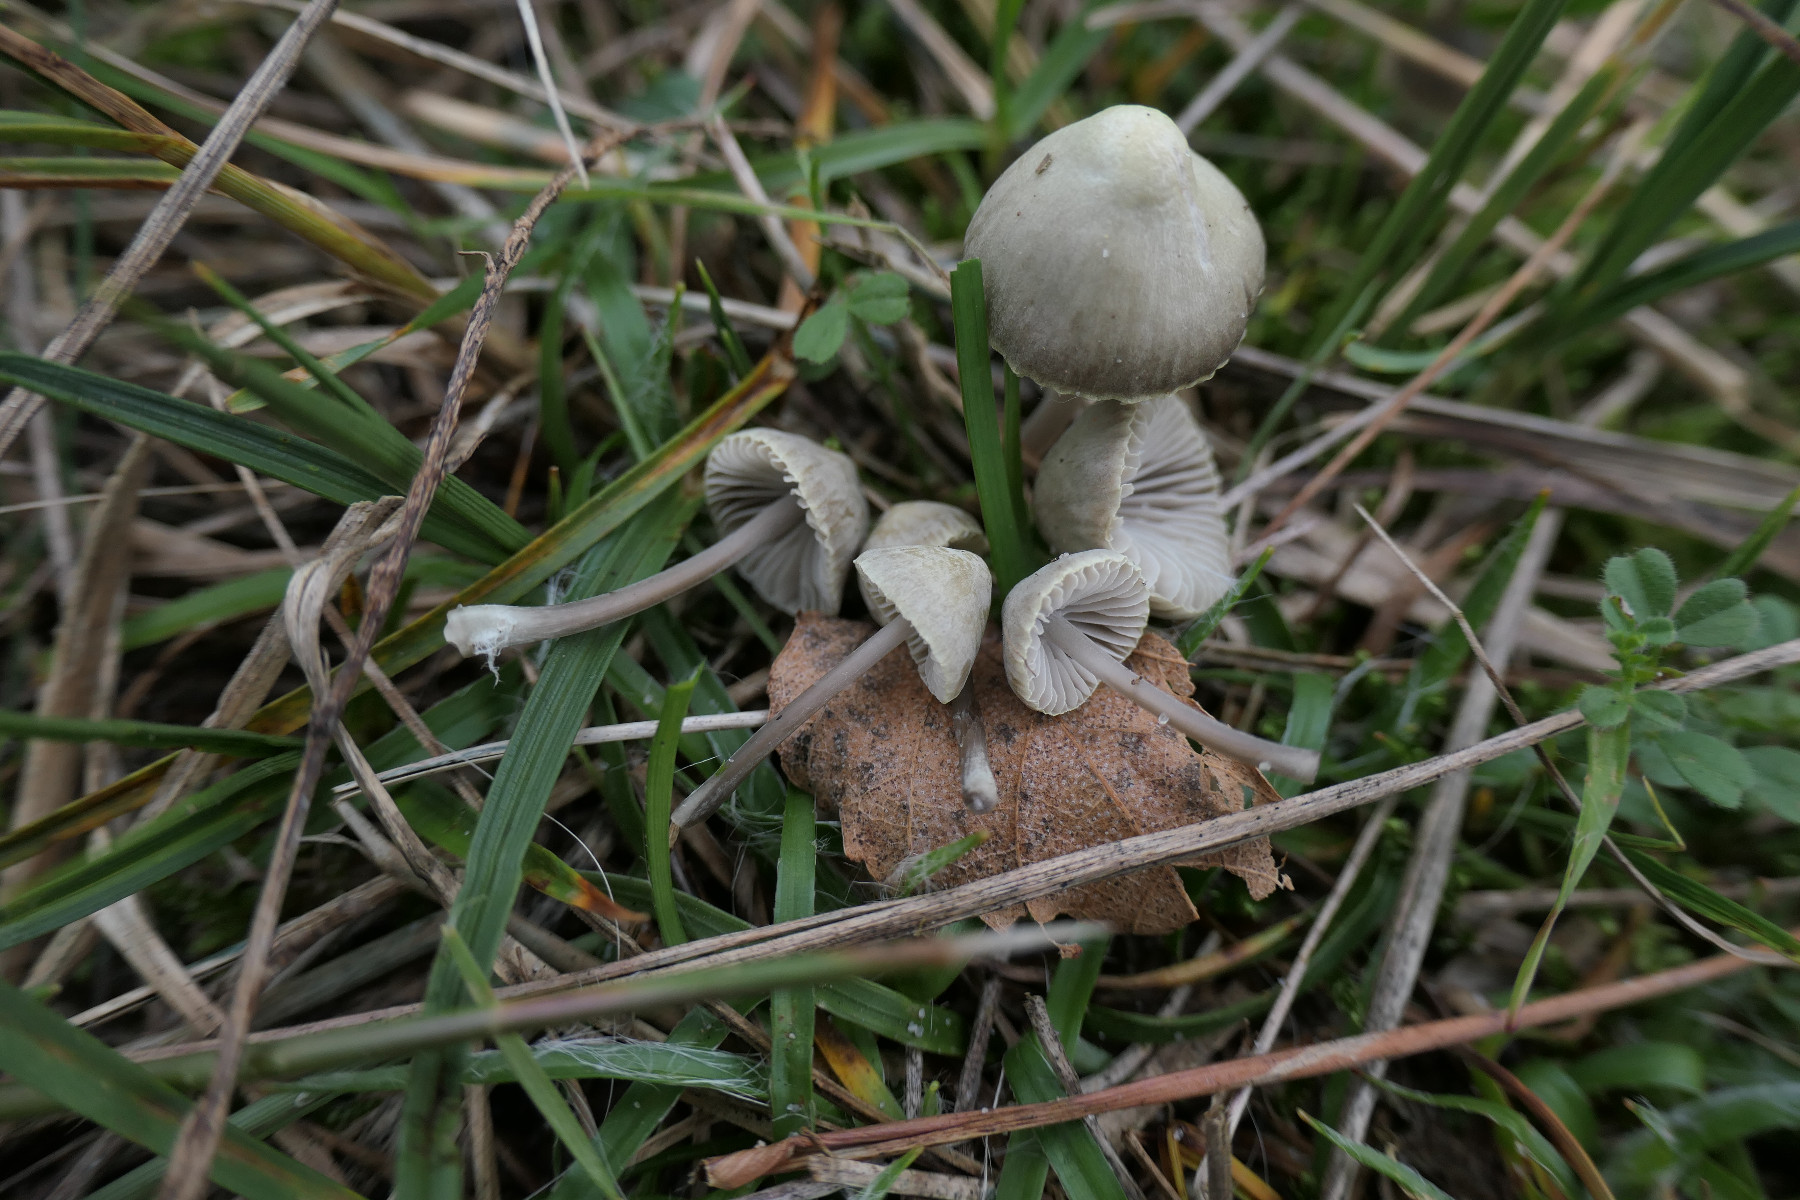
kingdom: Fungi
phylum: Basidiomycota
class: Agaricomycetes
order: Agaricales
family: Mycenaceae
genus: Mycena
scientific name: Mycena chlorantha
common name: klit-huesvamp
